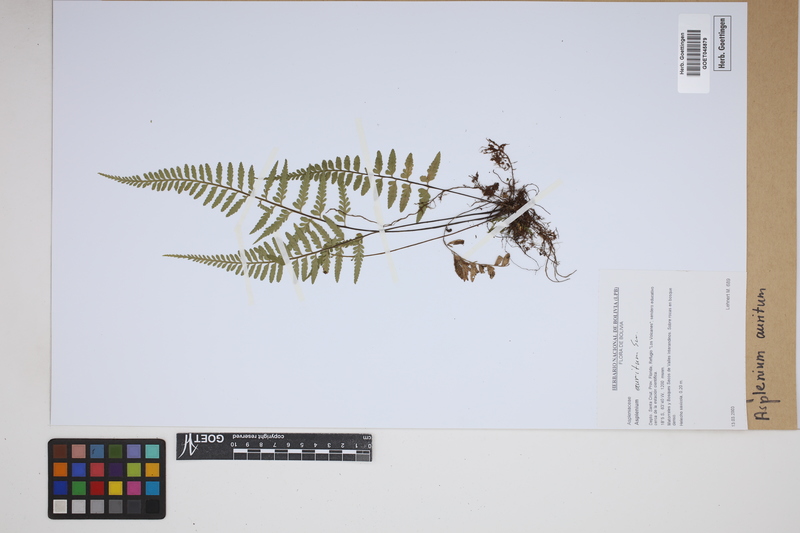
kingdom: Plantae
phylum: Tracheophyta
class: Polypodiopsida
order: Polypodiales
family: Aspleniaceae
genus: Asplenium
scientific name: Asplenium auritum
